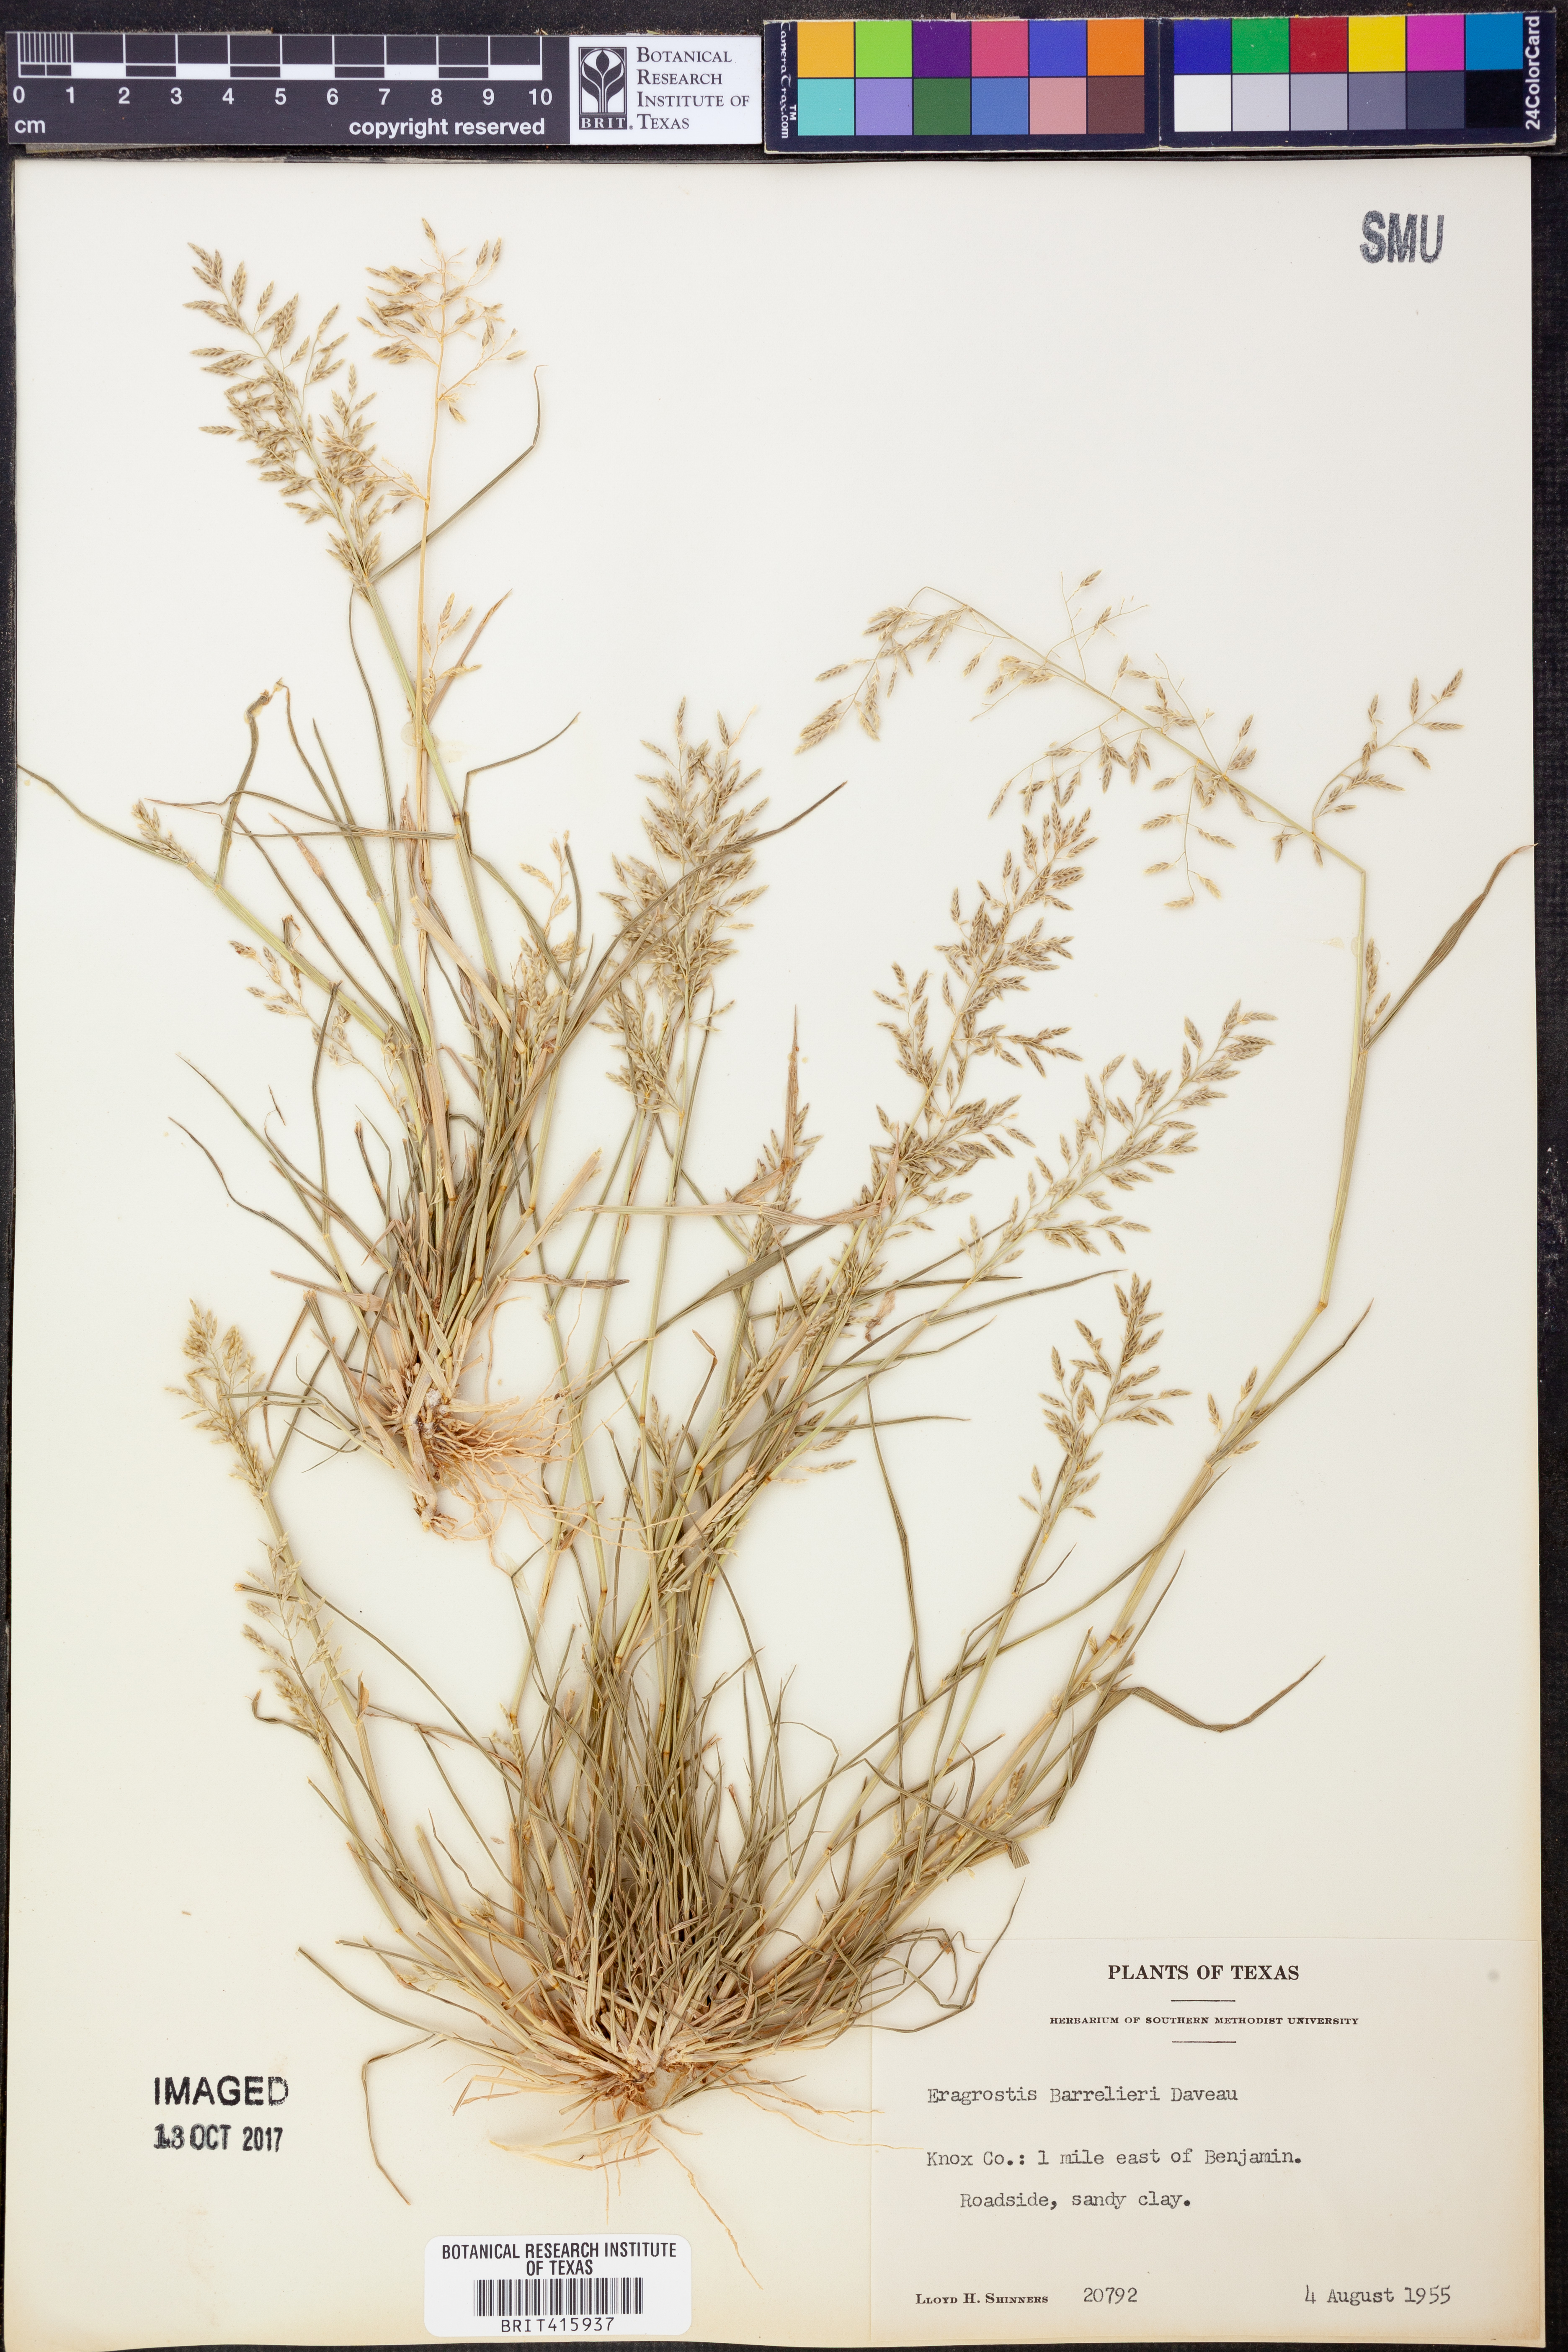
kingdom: Plantae
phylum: Tracheophyta
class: Liliopsida
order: Poales
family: Poaceae
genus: Eragrostis
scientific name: Eragrostis barrelieri
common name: Mediterranean lovegrass
